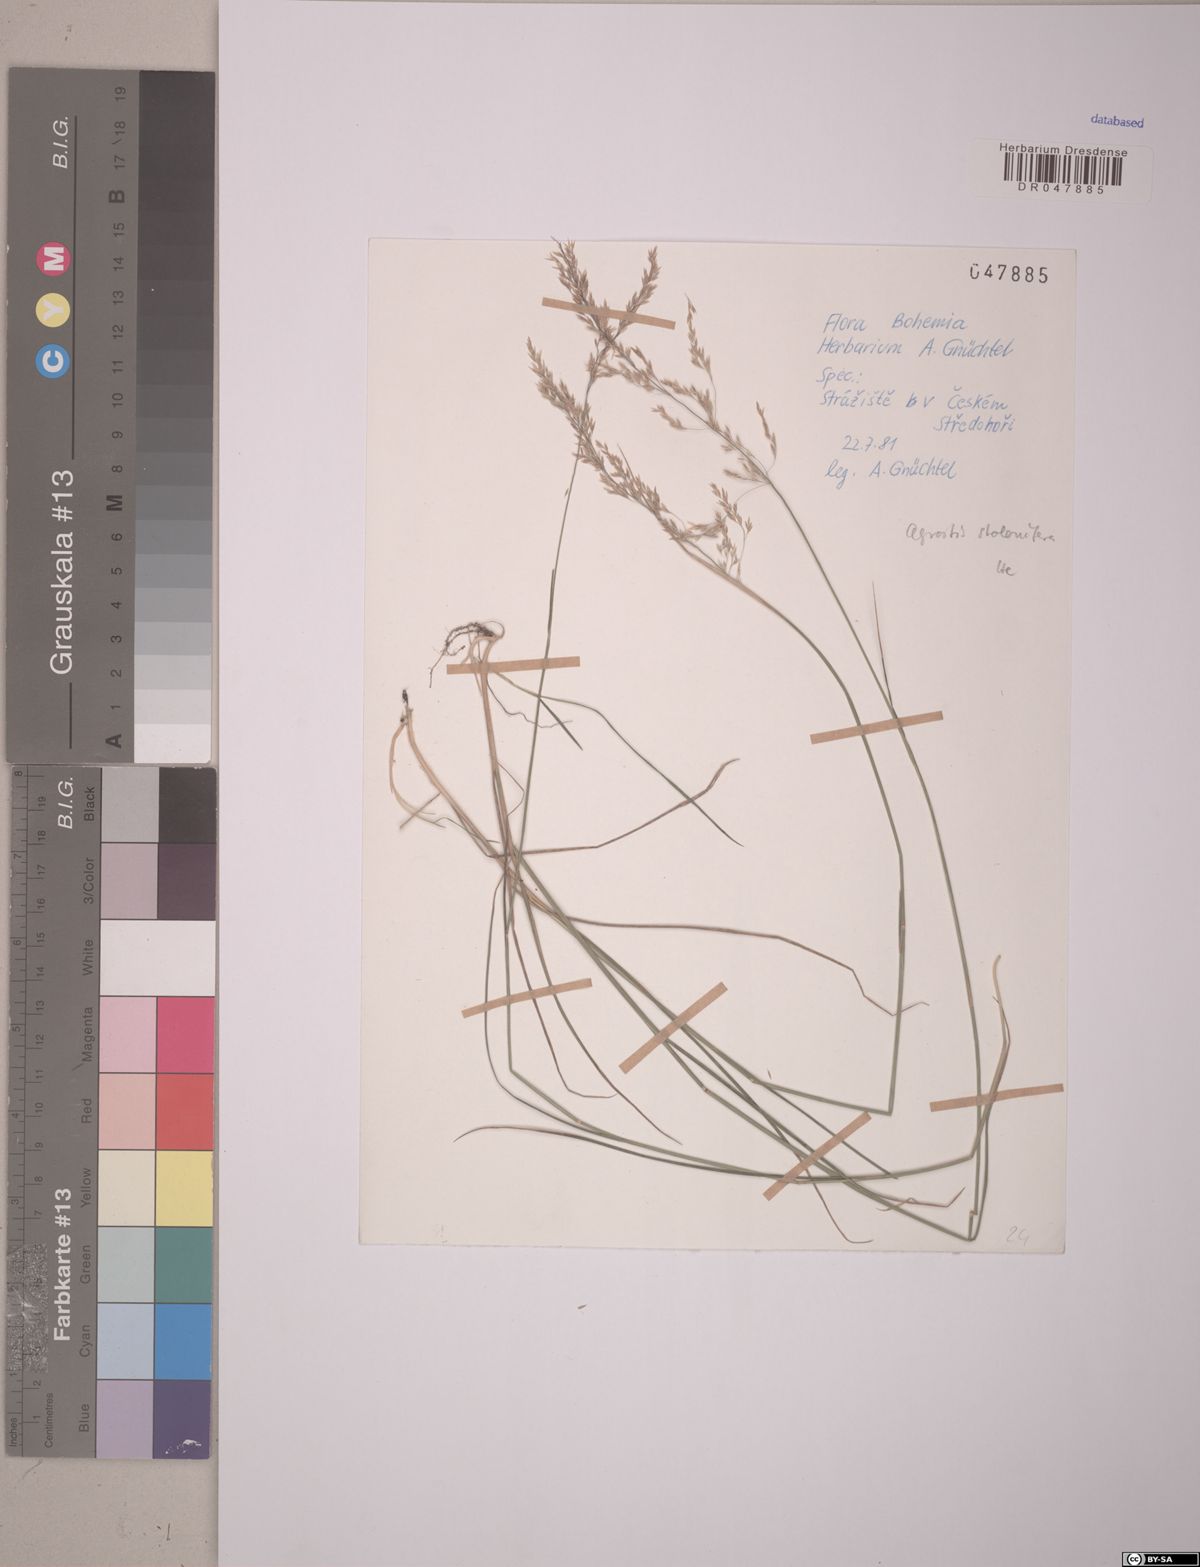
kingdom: Plantae
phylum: Tracheophyta
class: Liliopsida
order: Poales
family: Poaceae
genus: Agrostis
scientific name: Agrostis stolonifera
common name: Creeping bentgrass
